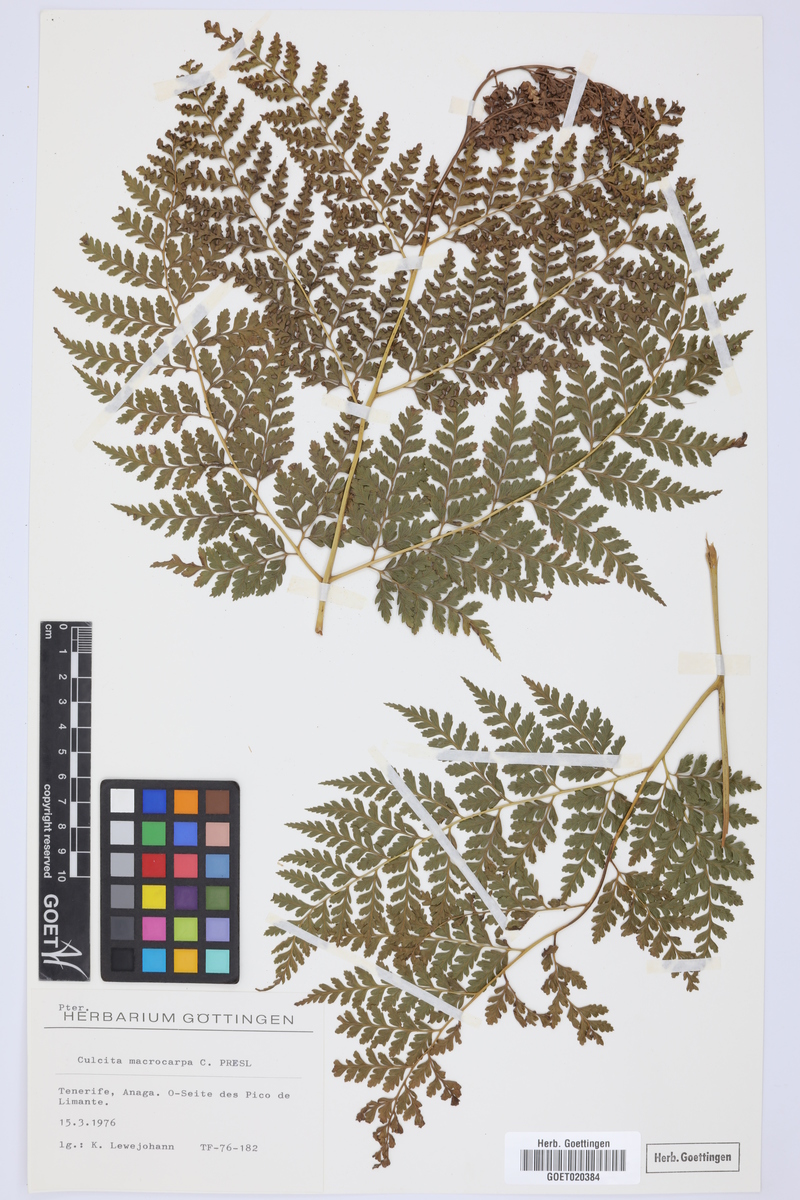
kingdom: Plantae
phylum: Tracheophyta
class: Polypodiopsida
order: Cyatheales
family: Culcitaceae
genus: Culcita
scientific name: Culcita macrocarpa
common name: Woolly tree fern
